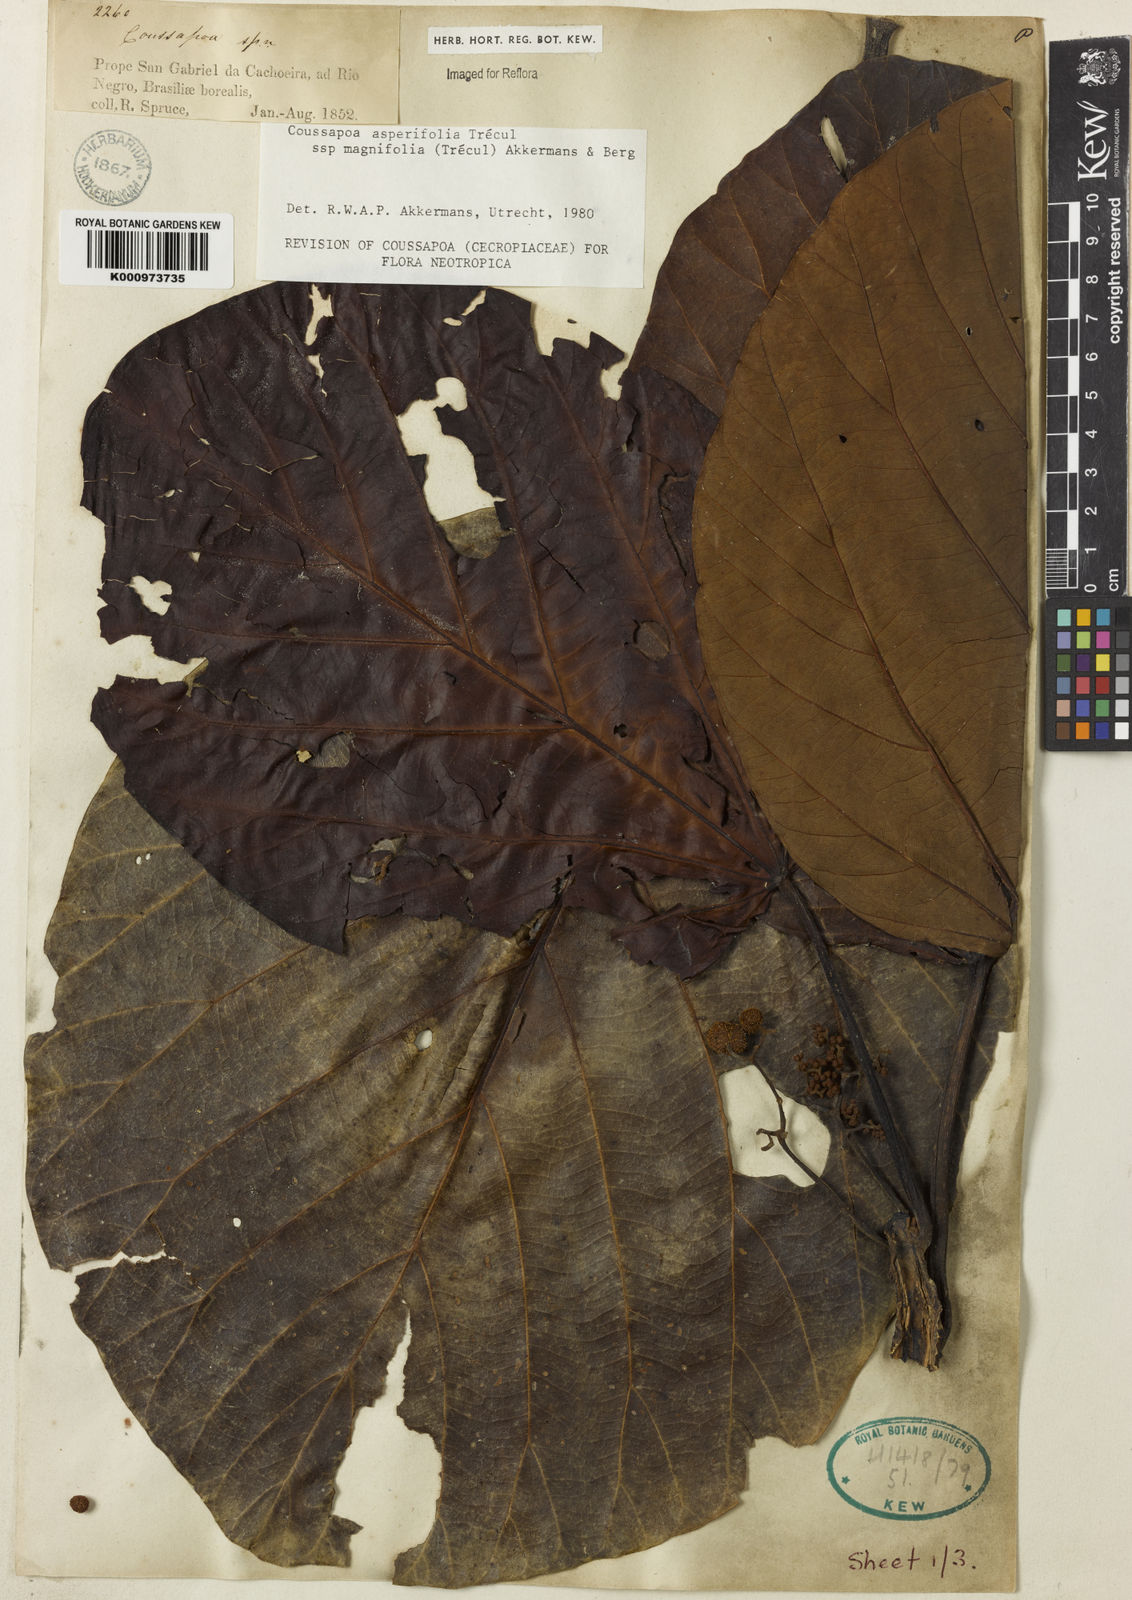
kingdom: Plantae
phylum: Tracheophyta
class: Magnoliopsida
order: Rosales
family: Urticaceae
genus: Coussapoa
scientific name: Coussapoa
